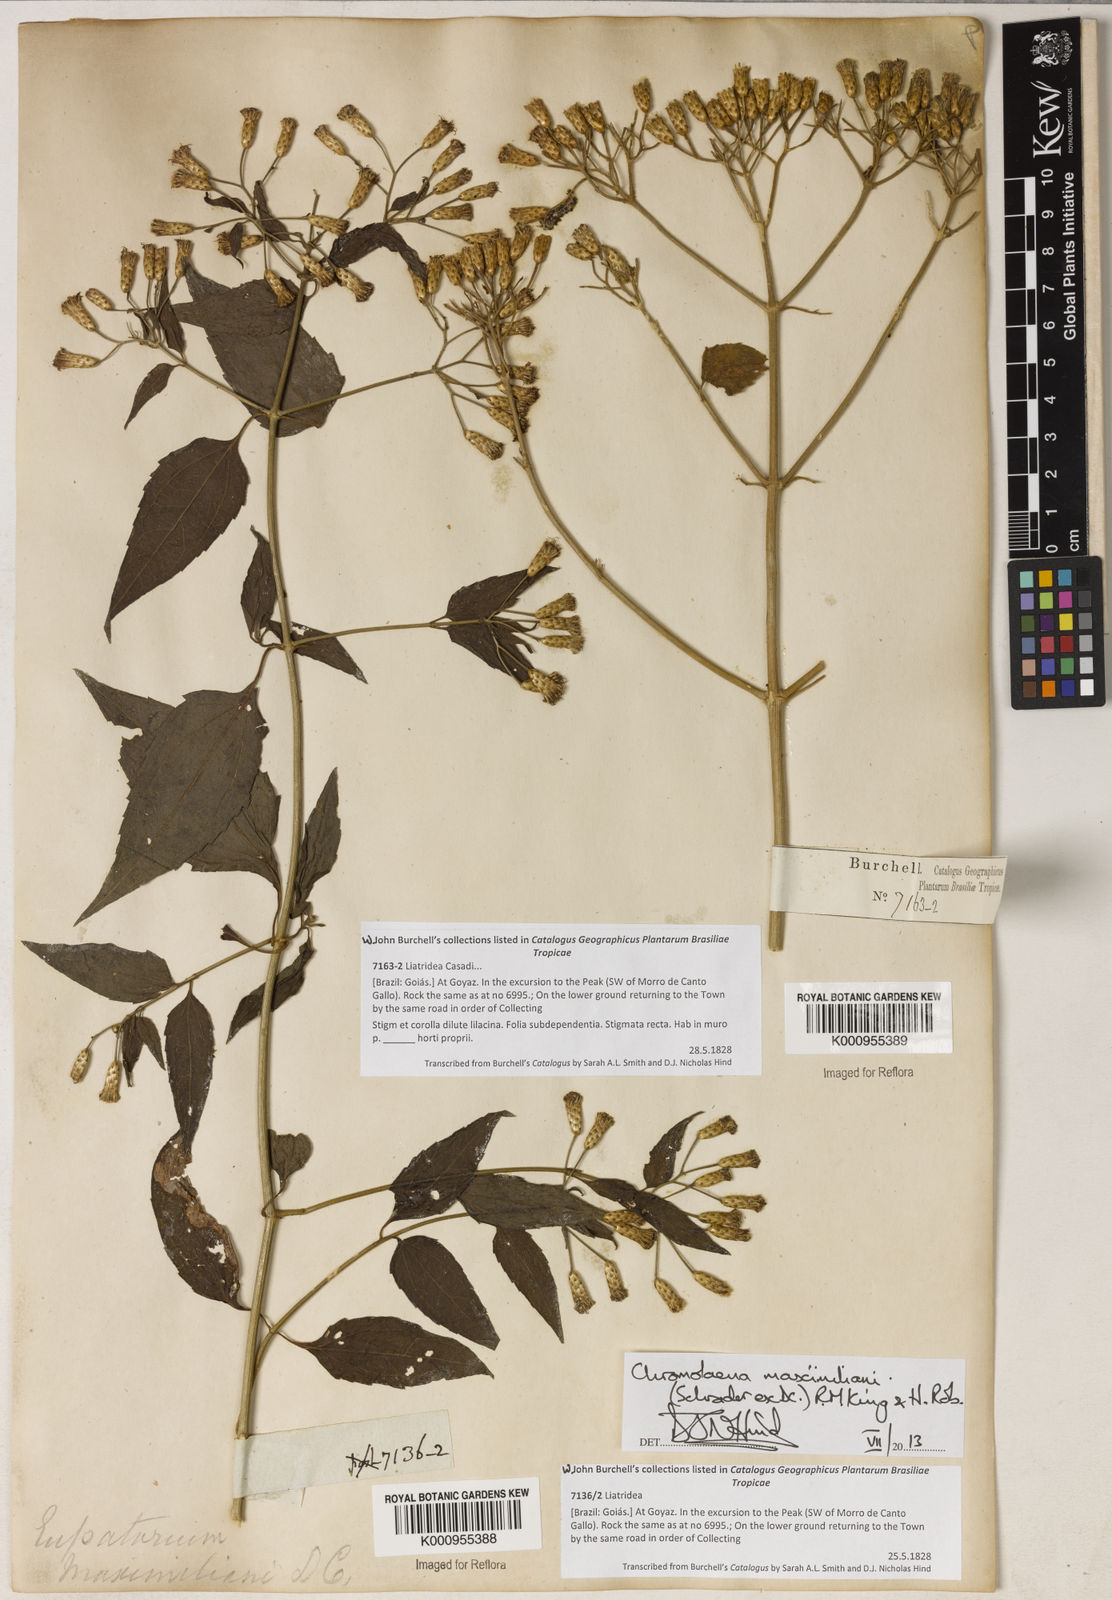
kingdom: Plantae
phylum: Tracheophyta
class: Magnoliopsida
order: Asterales
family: Asteraceae
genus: Chromolaena
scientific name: Chromolaena maximiliani
